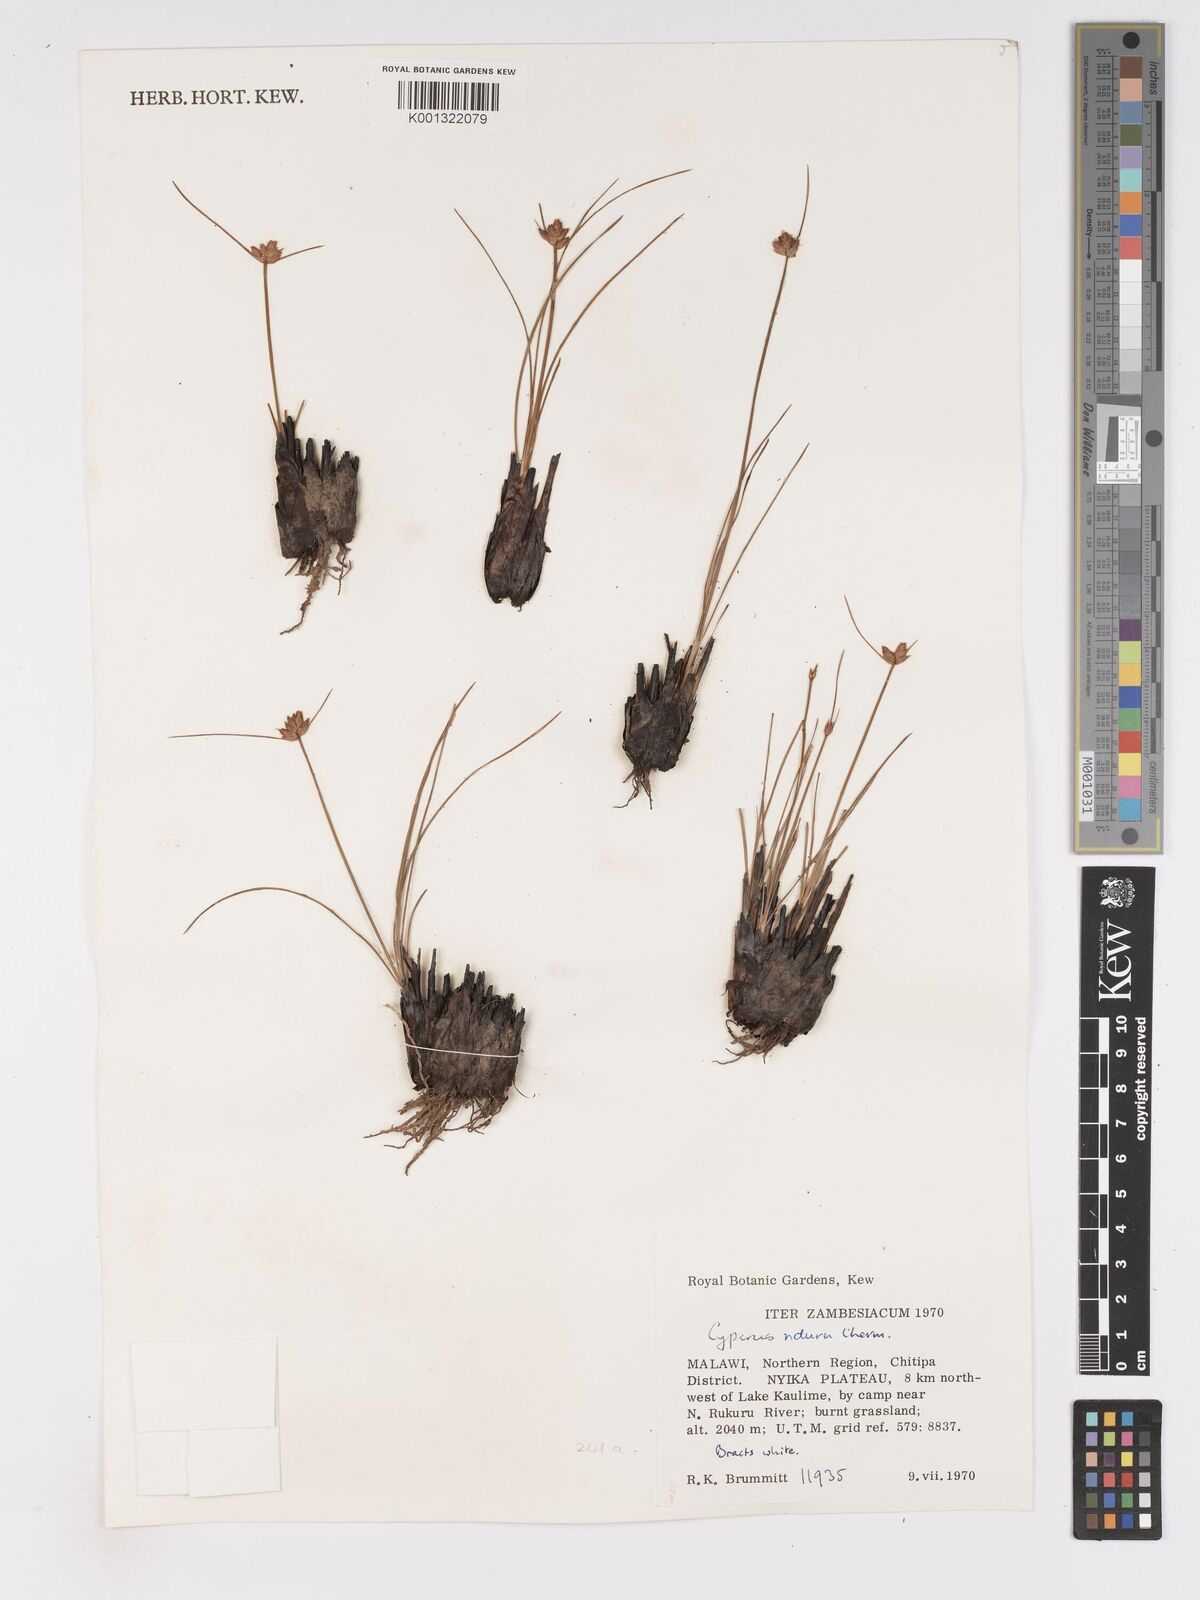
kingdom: Plantae
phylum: Tracheophyta
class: Liliopsida
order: Poales
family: Cyperaceae
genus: Cyperus
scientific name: Cyperus nduru
